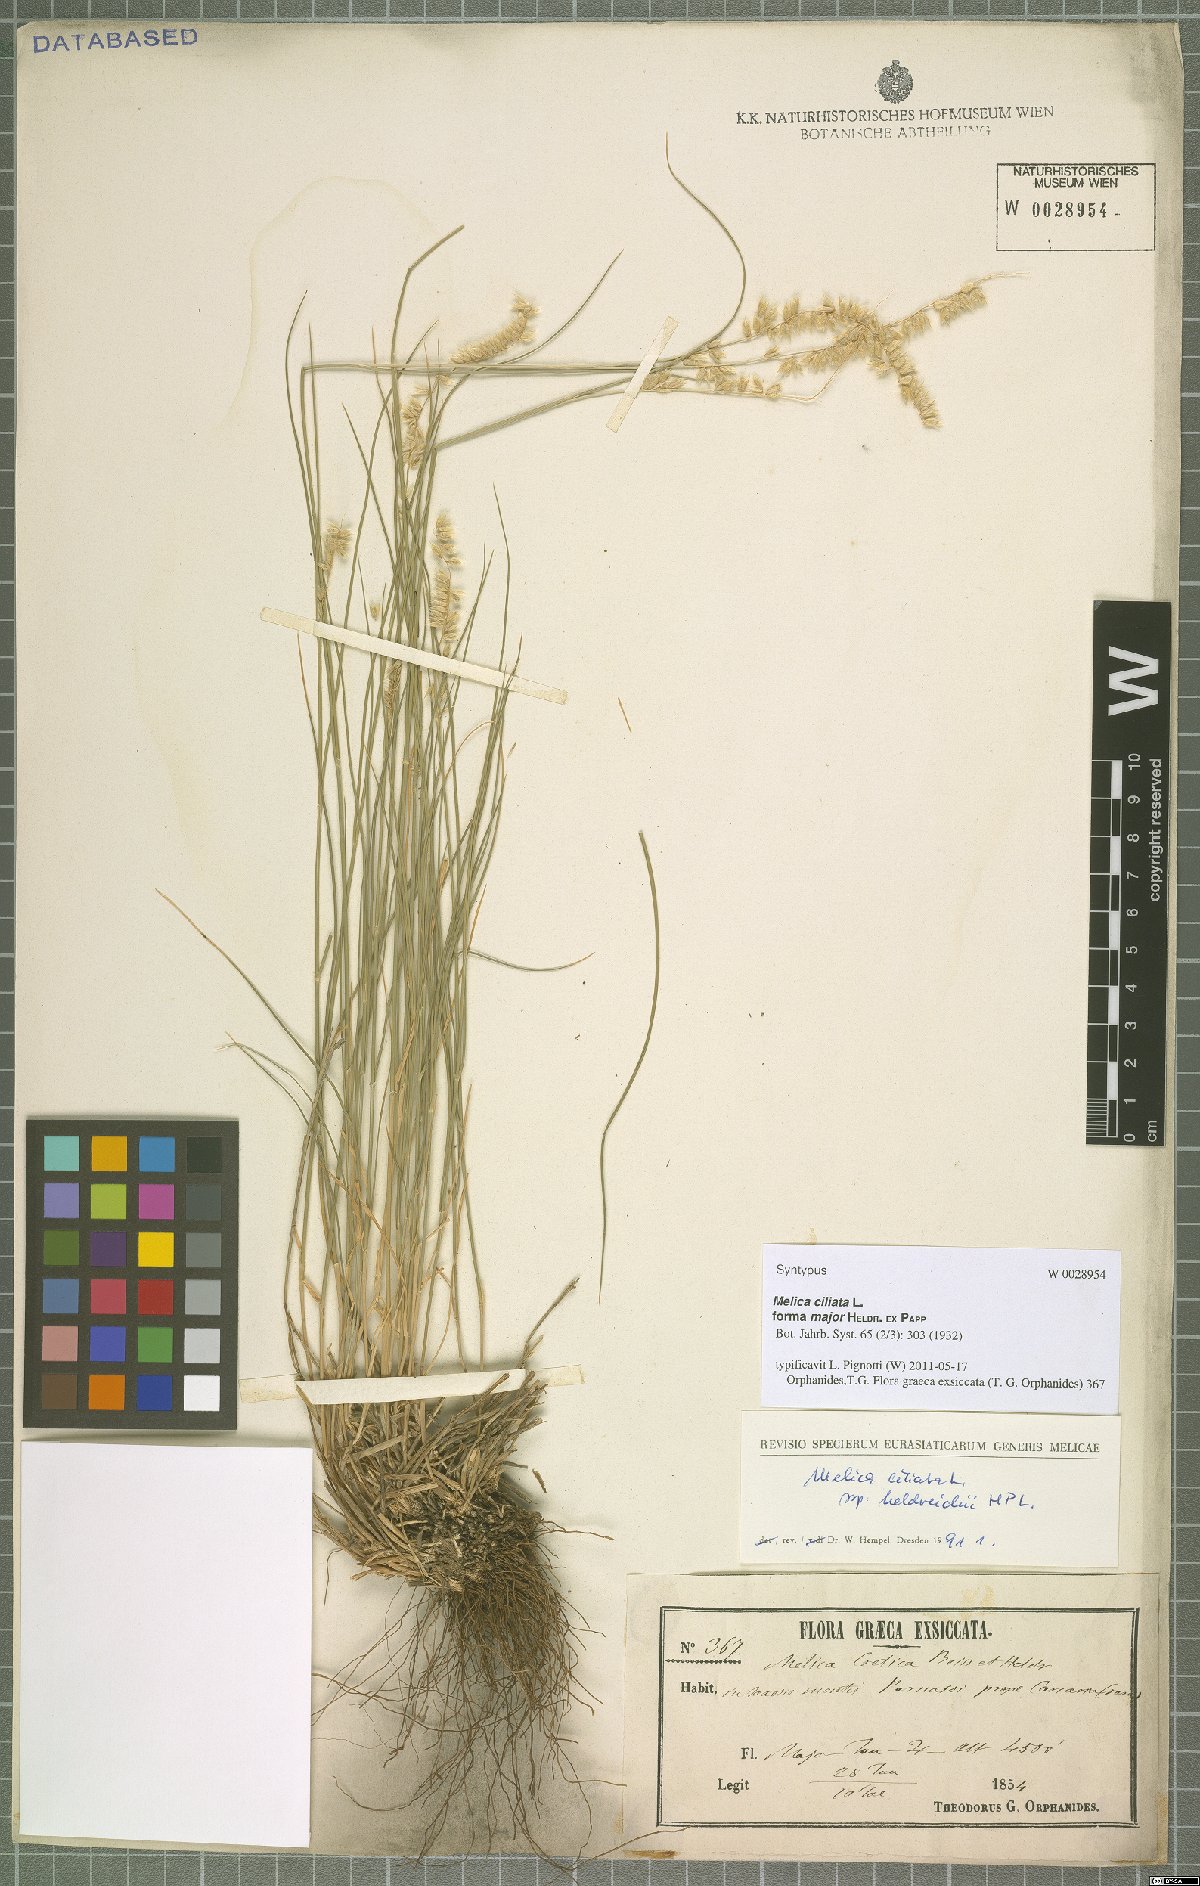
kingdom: Plantae
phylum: Tracheophyta
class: Liliopsida
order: Poales
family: Poaceae
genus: Melica
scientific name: Melica ciliata
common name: Hairy melicgrass
